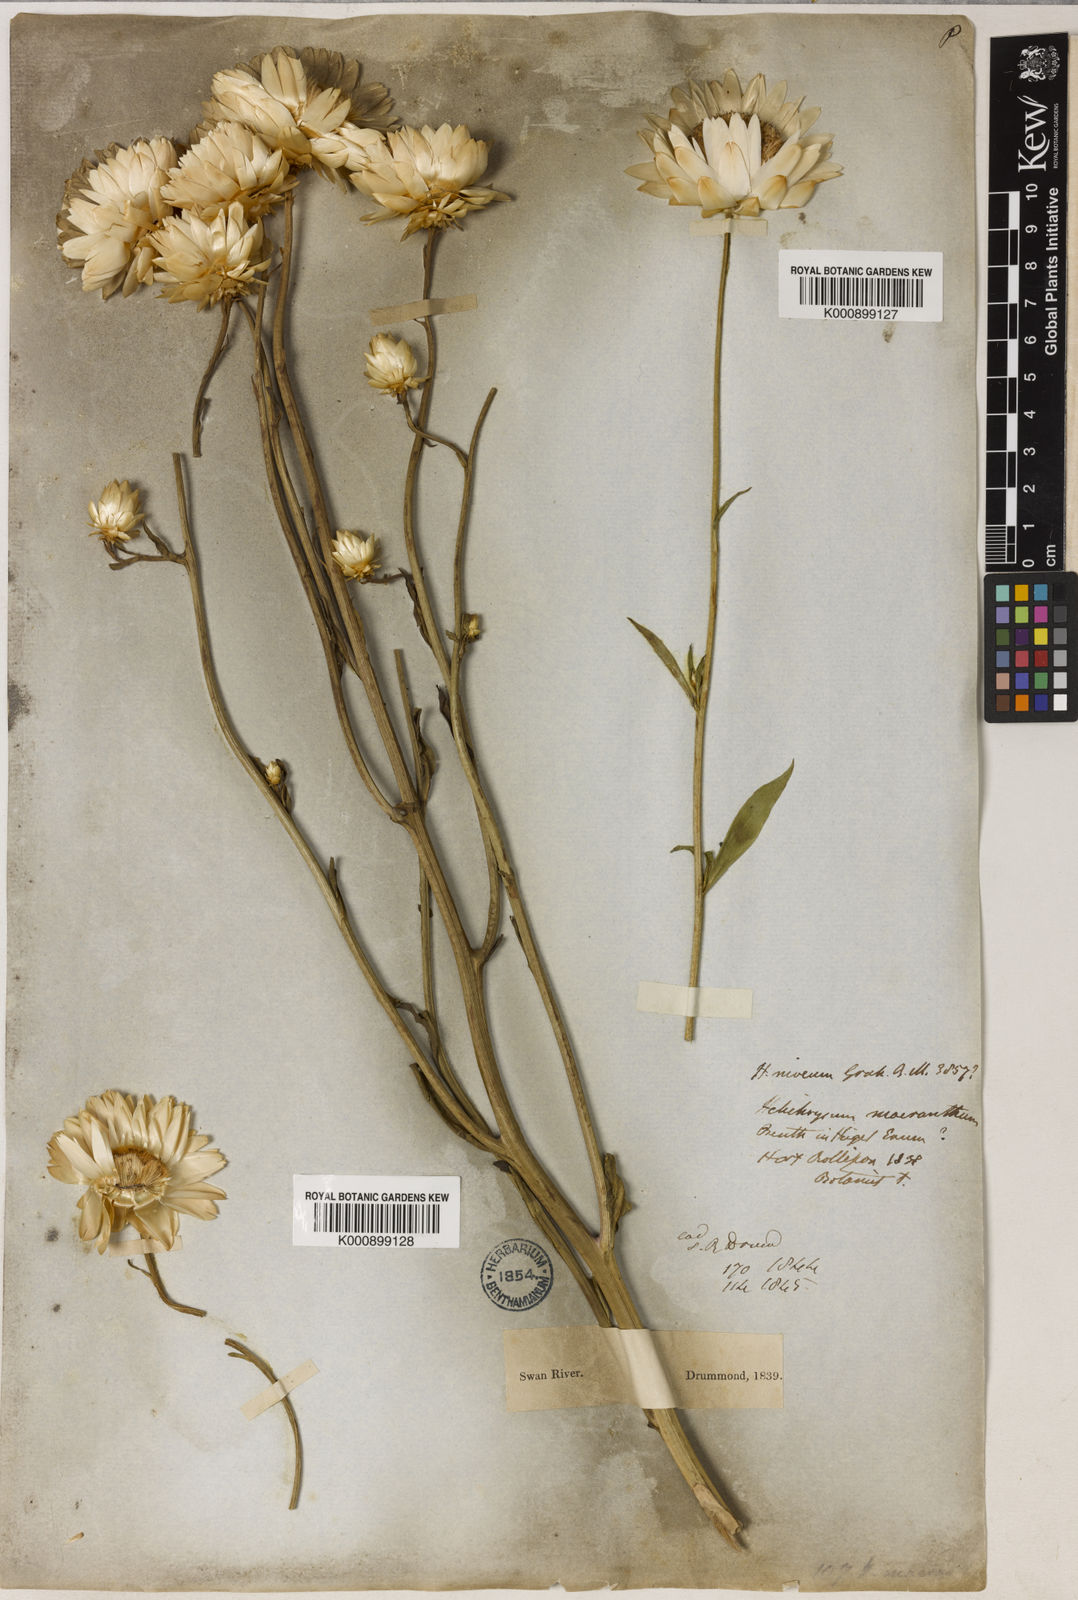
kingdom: Plantae
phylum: Tracheophyta
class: Magnoliopsida
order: Asterales
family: Asteraceae
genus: Xerochrysum
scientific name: Xerochrysum
